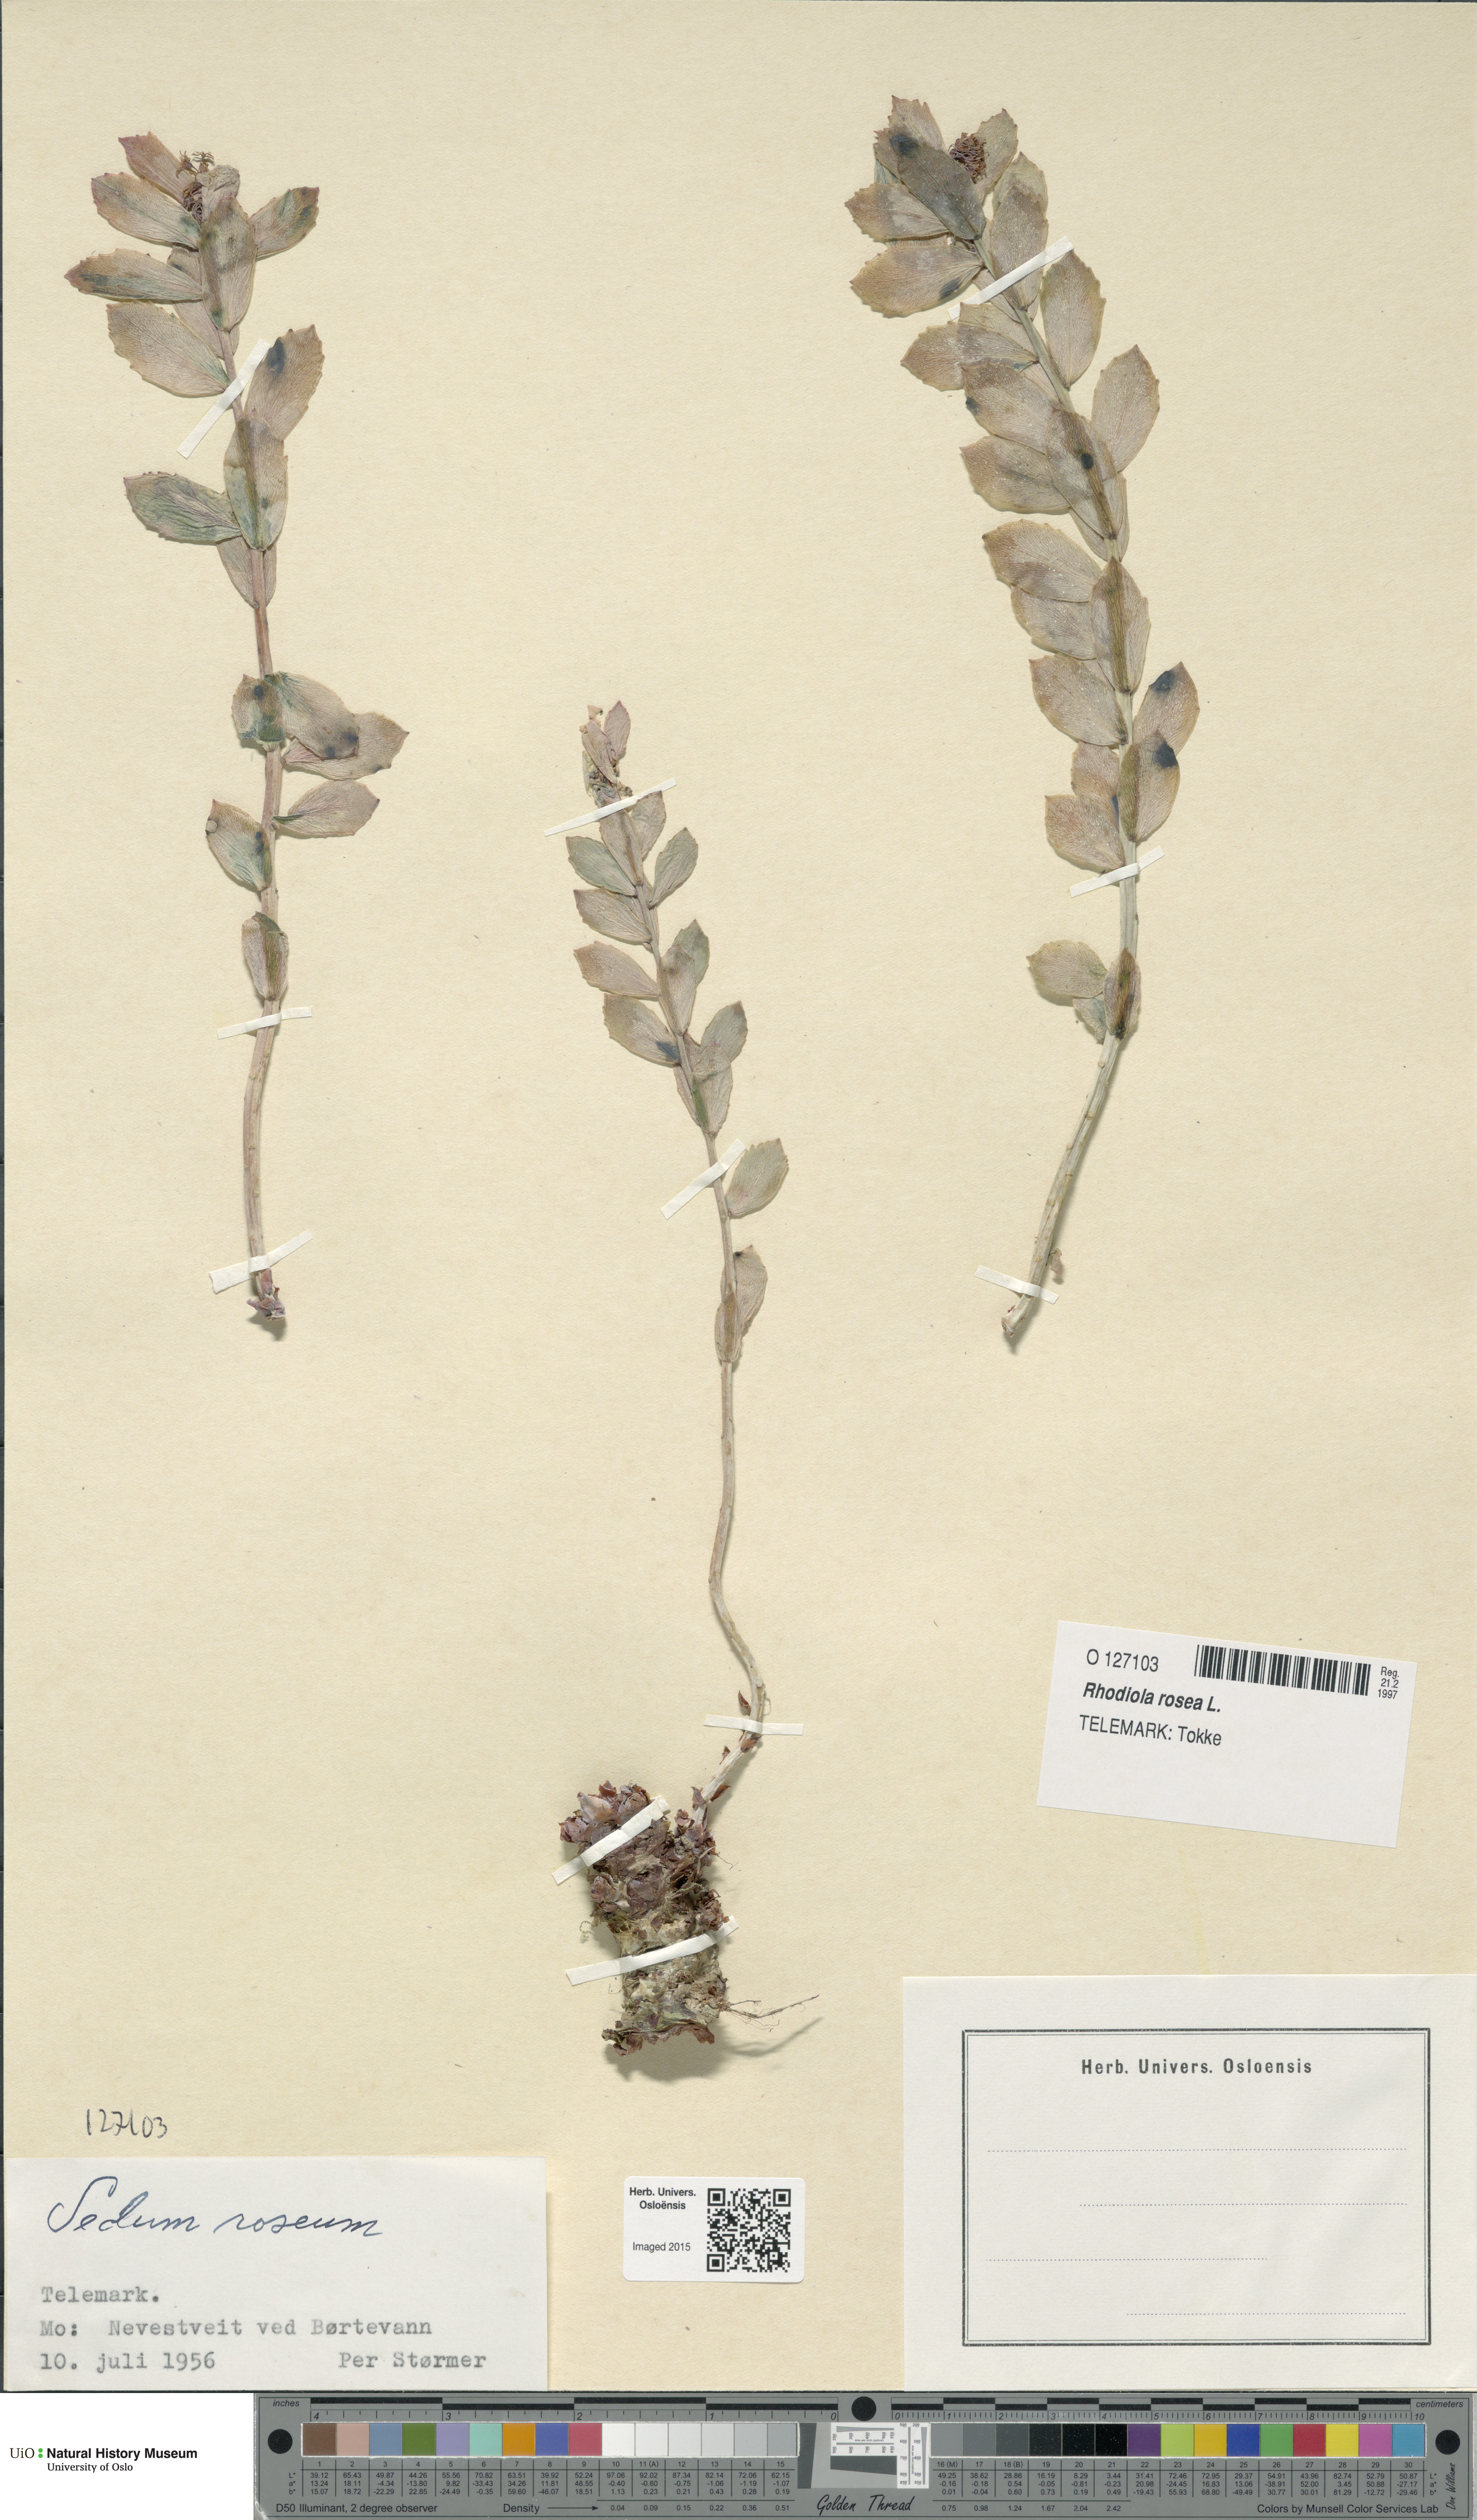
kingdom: Plantae
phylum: Tracheophyta
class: Magnoliopsida
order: Saxifragales
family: Crassulaceae
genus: Rhodiola
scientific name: Rhodiola rosea
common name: Roseroot
